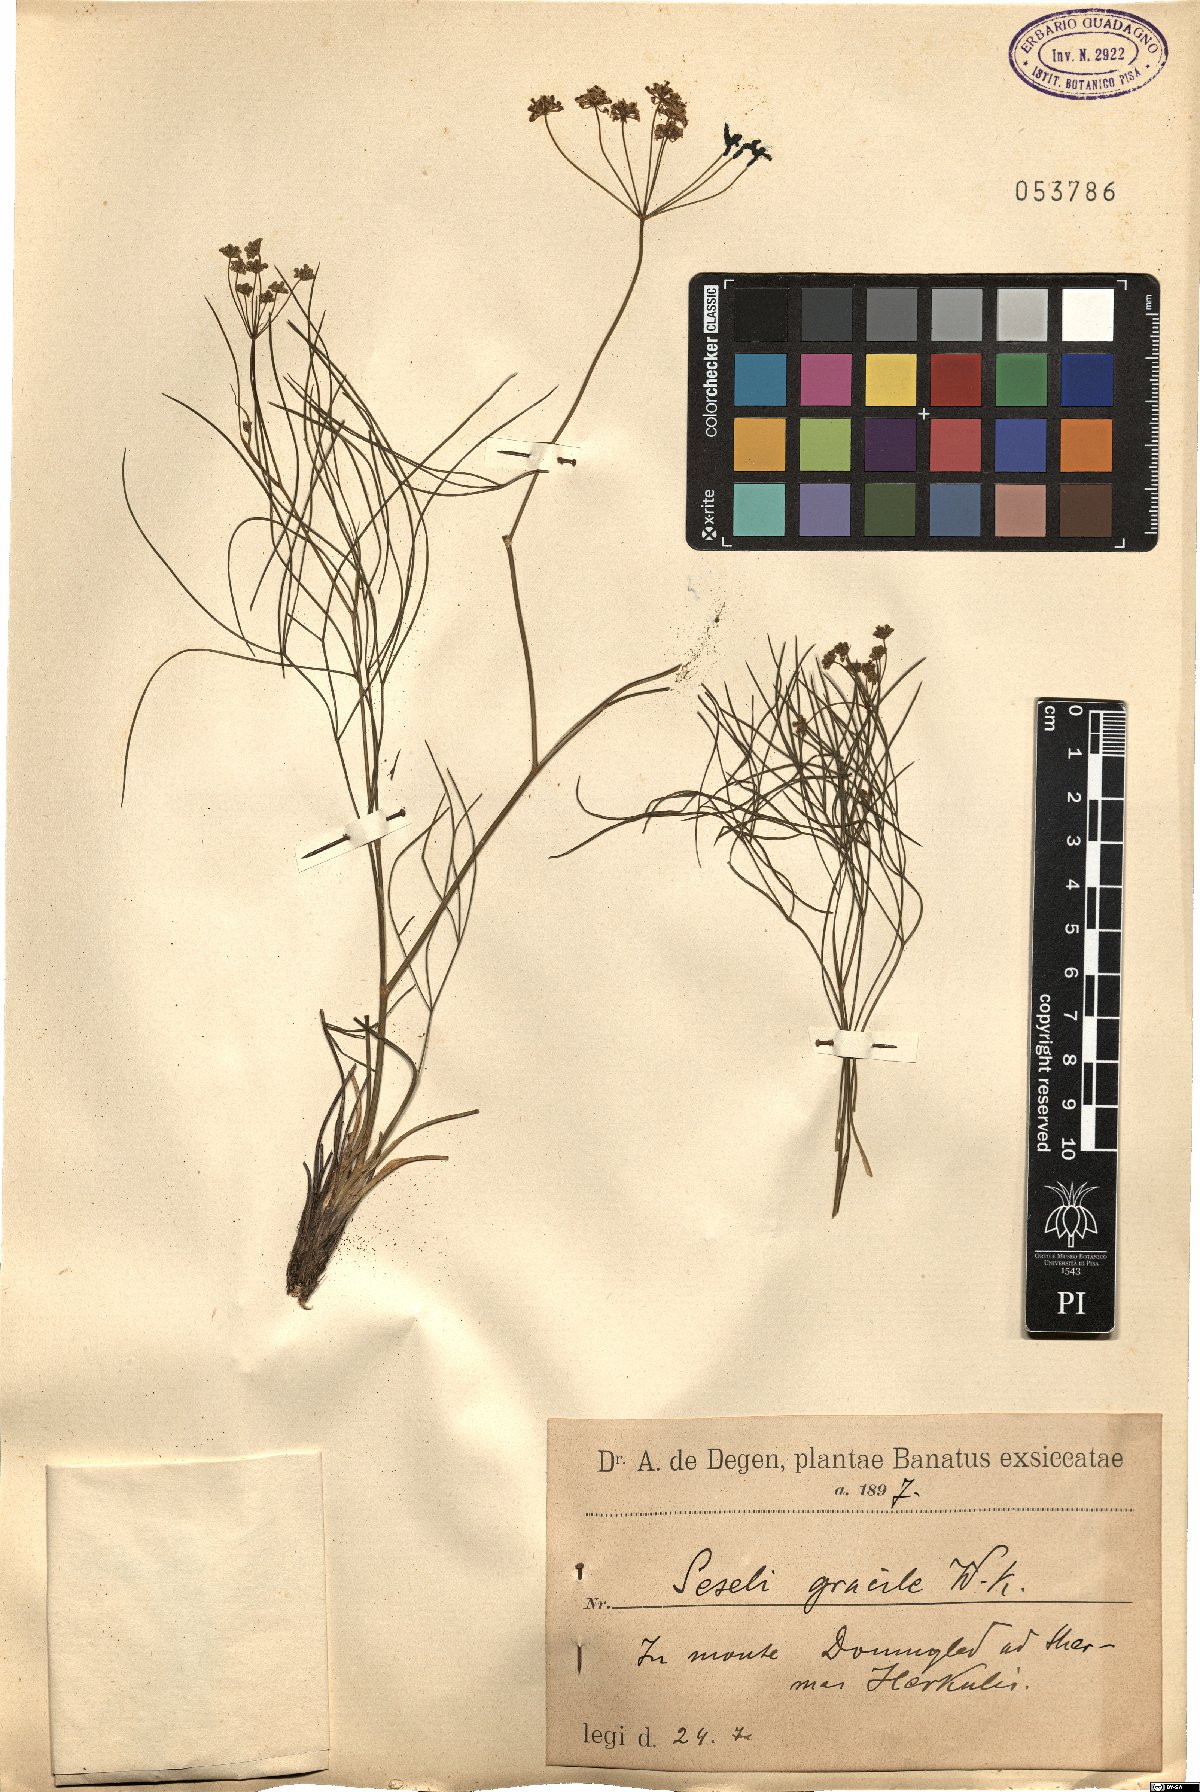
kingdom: Plantae
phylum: Tracheophyta
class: Magnoliopsida
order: Apiales
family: Apiaceae
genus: Seseli
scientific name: Seseli gracile
